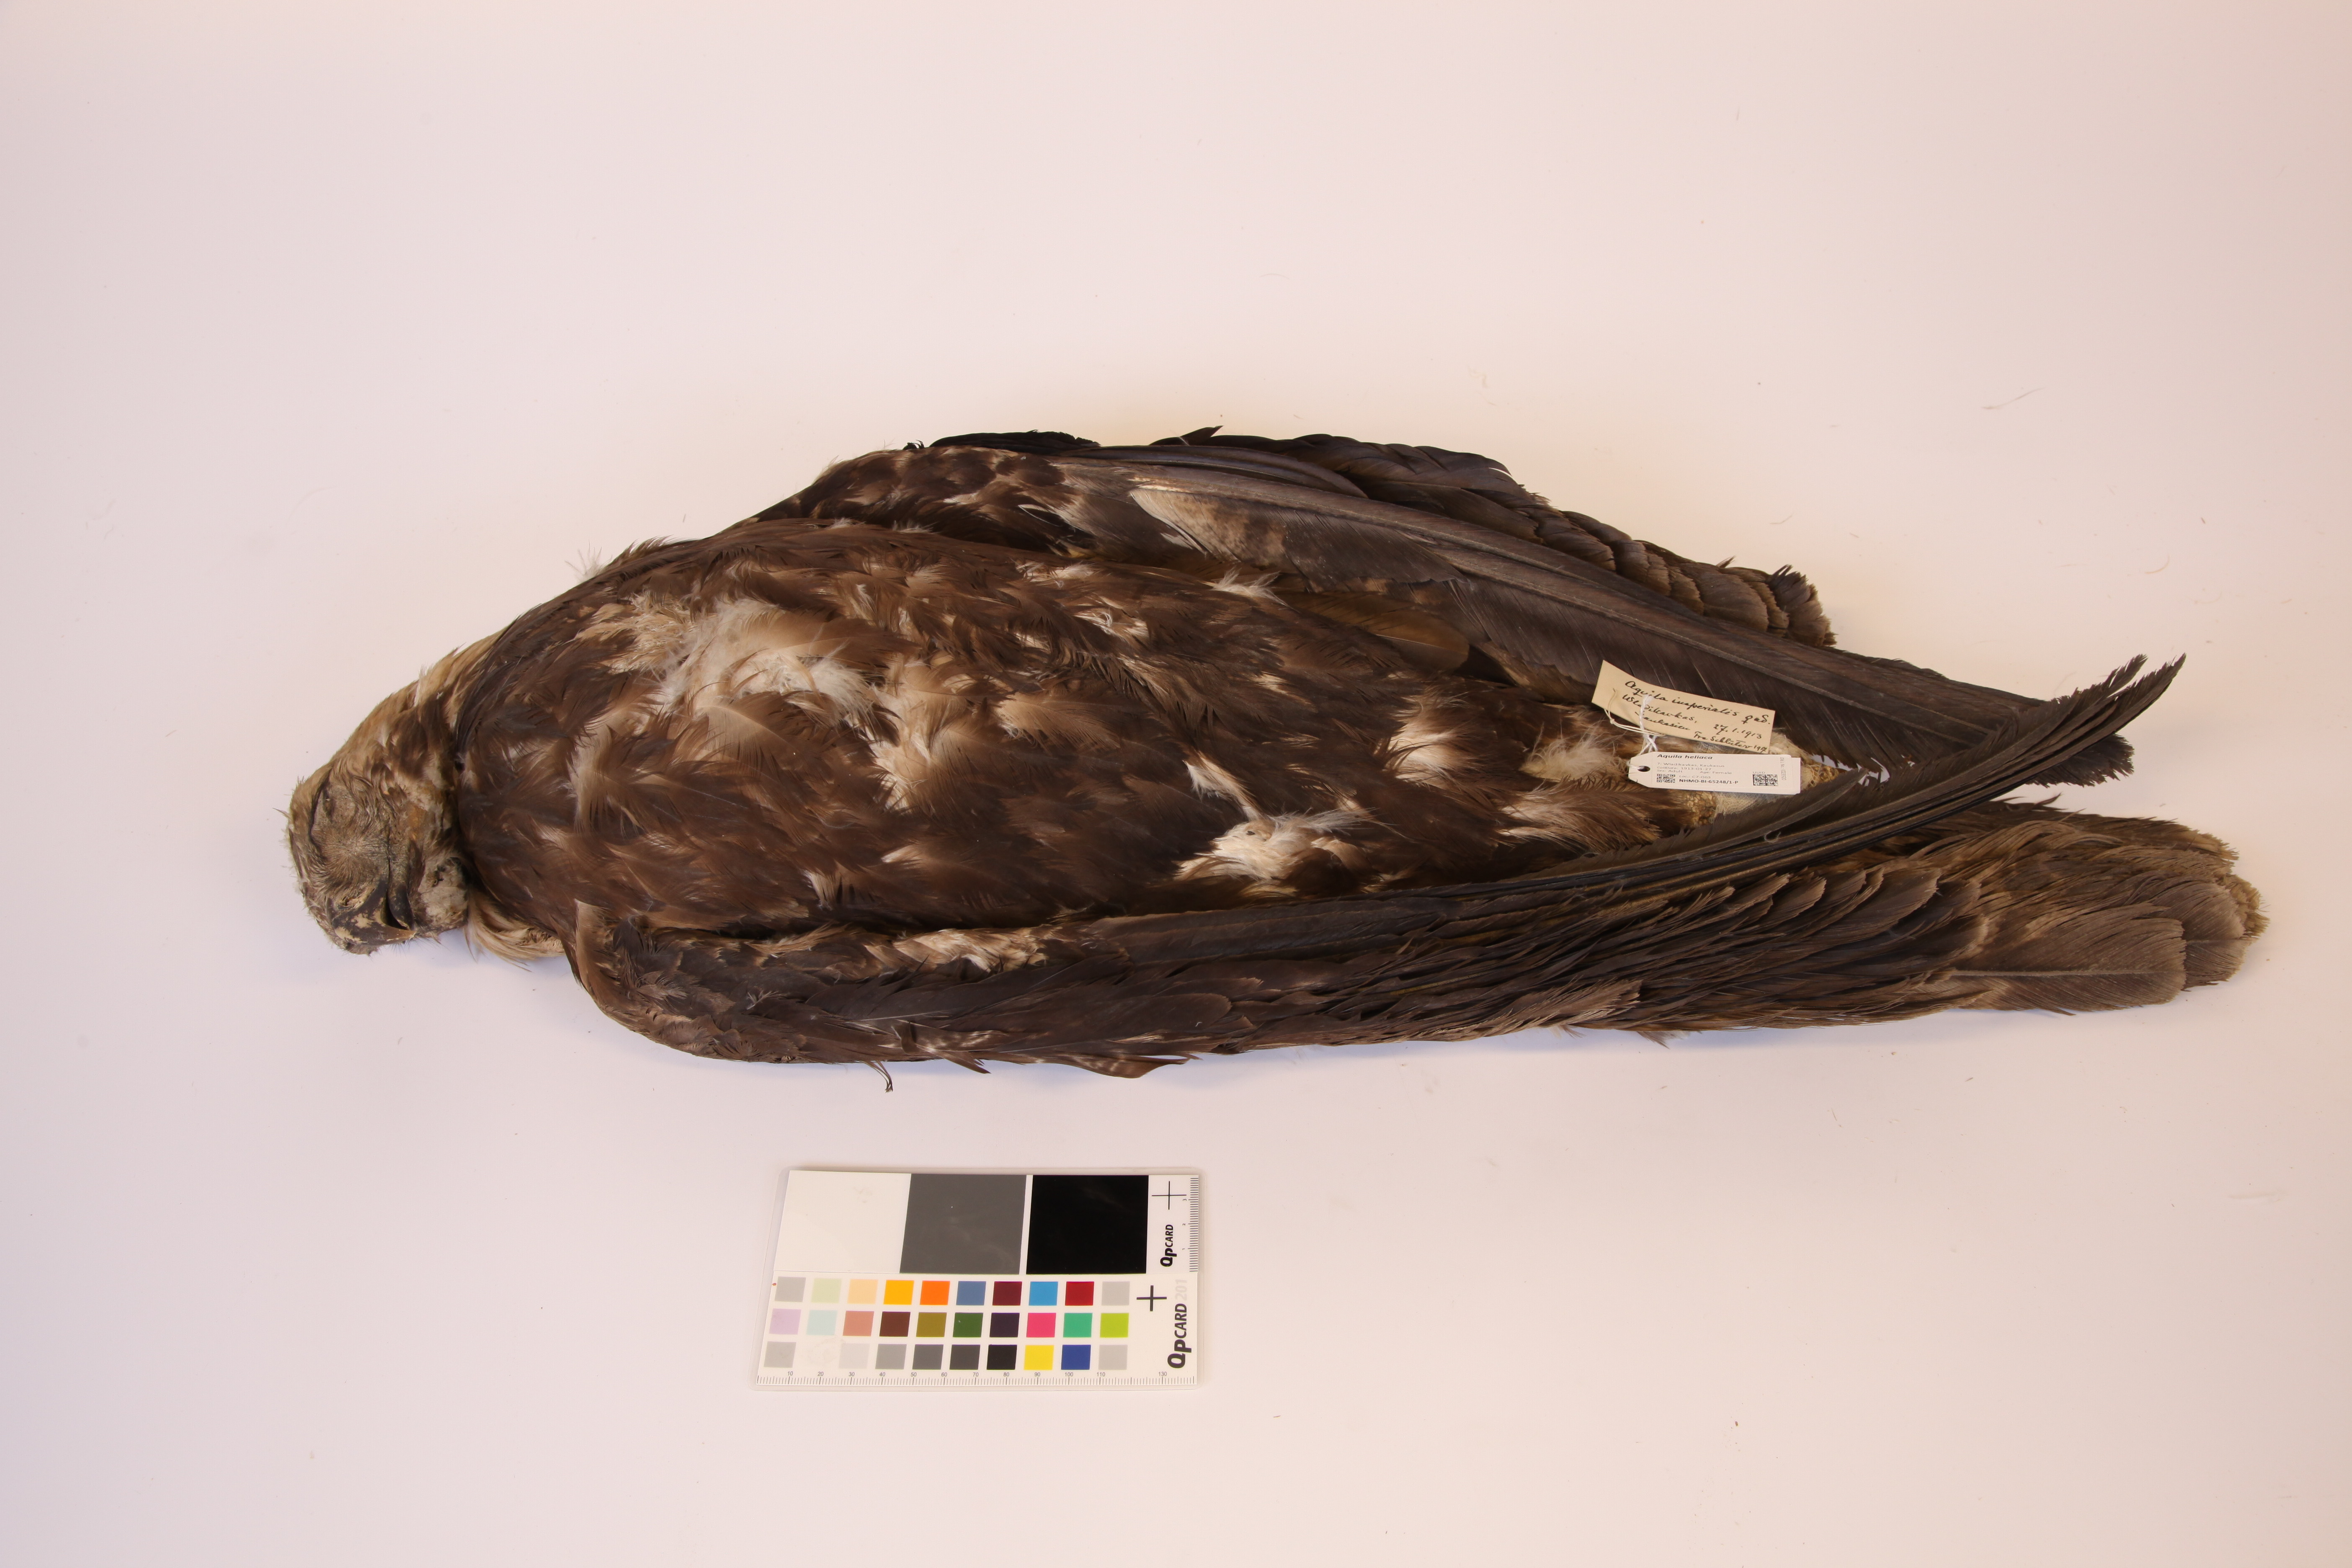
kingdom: Animalia
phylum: Chordata
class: Aves
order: Accipitriformes
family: Accipitridae
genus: Aquila
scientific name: Aquila heliaca
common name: Eastern imperial eagle
